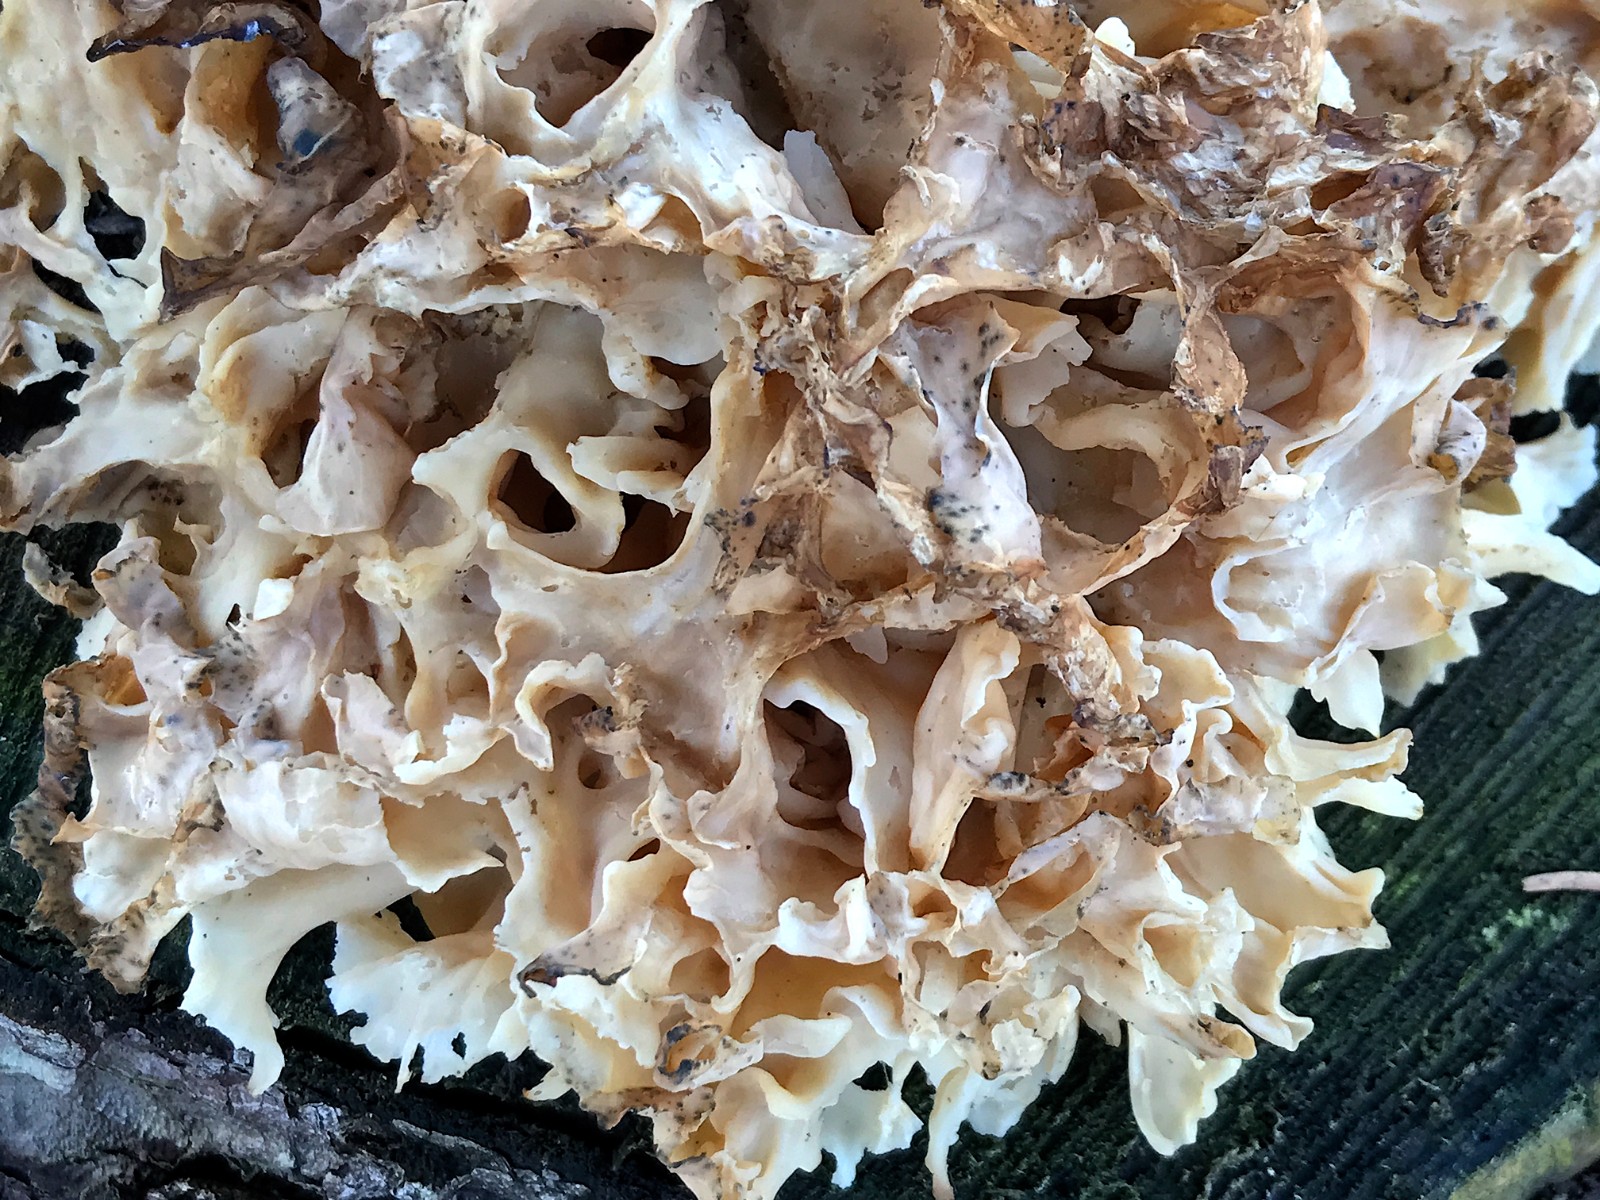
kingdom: Fungi
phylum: Basidiomycota
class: Agaricomycetes
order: Polyporales
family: Sparassidaceae
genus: Sparassis
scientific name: Sparassis crispa
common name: kruset blomkålssvamp
